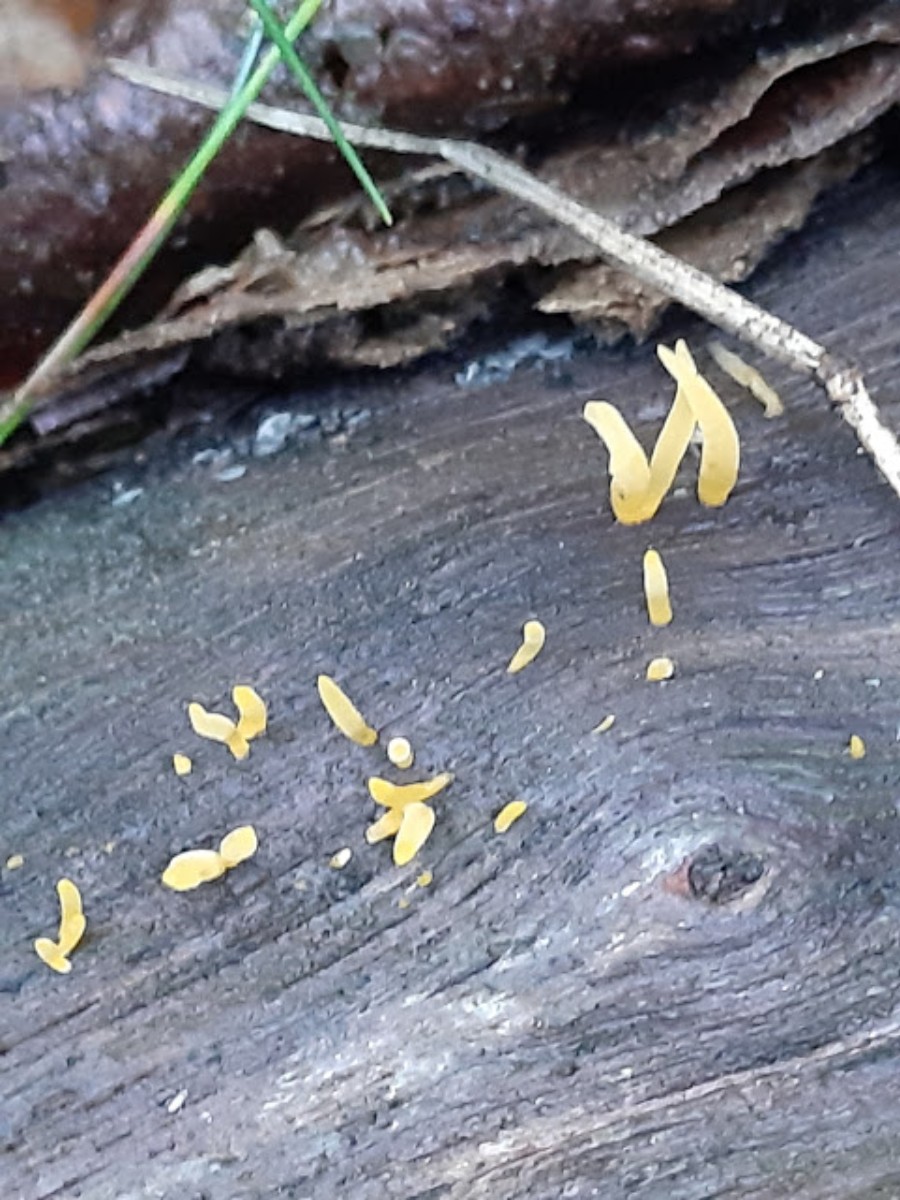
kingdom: Fungi
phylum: Basidiomycota
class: Dacrymycetes
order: Dacrymycetales
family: Dacrymycetaceae
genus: Calocera
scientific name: Calocera cornea
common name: liden guldgaffel
